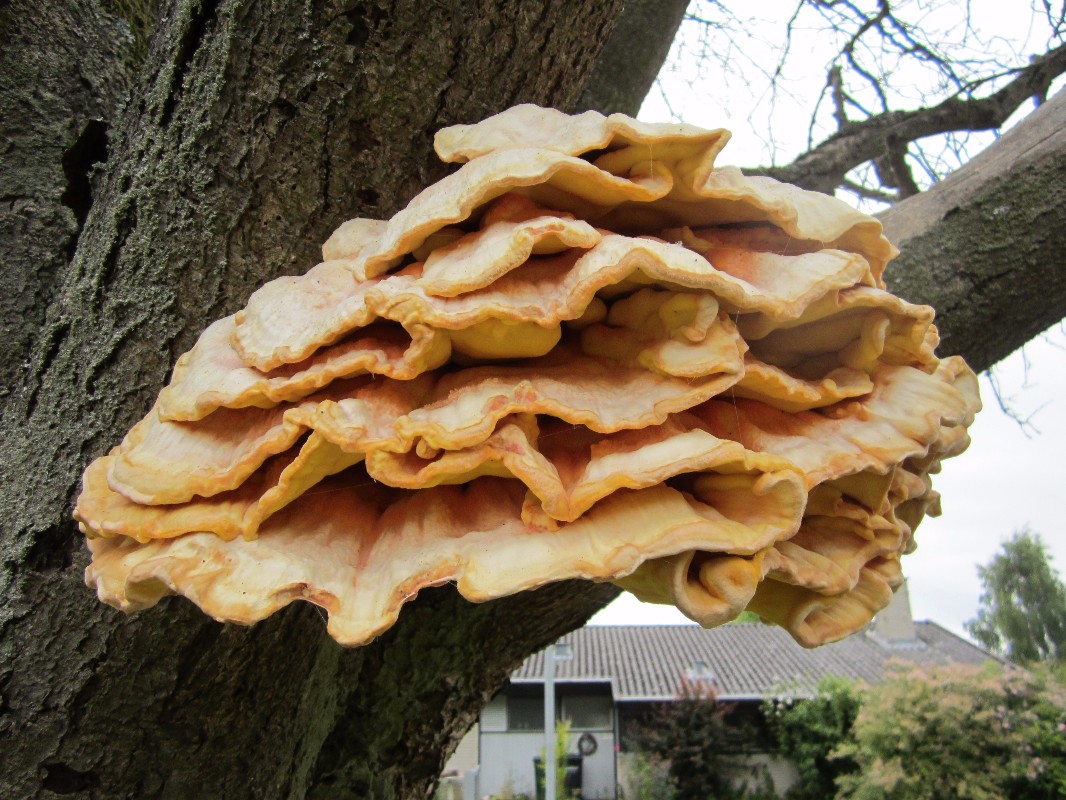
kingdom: Fungi
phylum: Basidiomycota
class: Agaricomycetes
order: Polyporales
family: Laetiporaceae
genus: Laetiporus
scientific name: Laetiporus sulphureus
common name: svovlporesvamp
